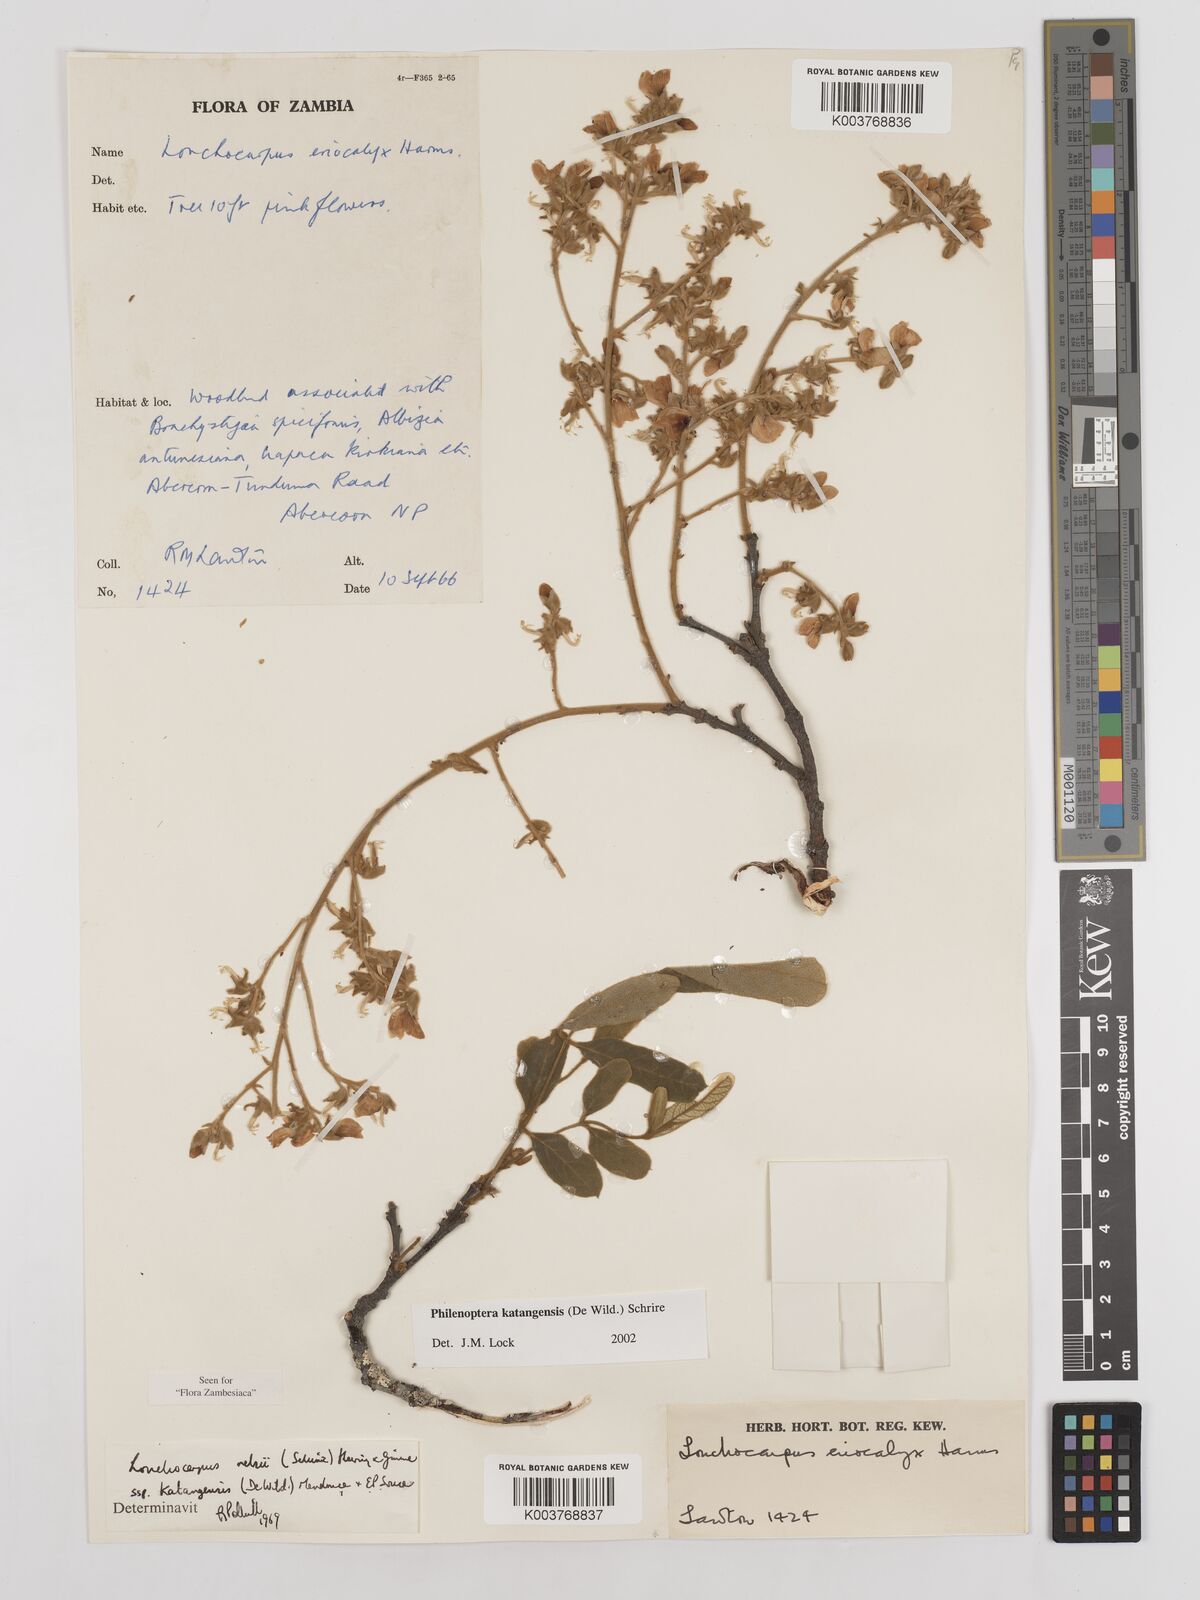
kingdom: Plantae
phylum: Tracheophyta
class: Magnoliopsida
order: Fabales
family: Fabaceae
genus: Philenoptera
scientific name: Philenoptera katangensis
